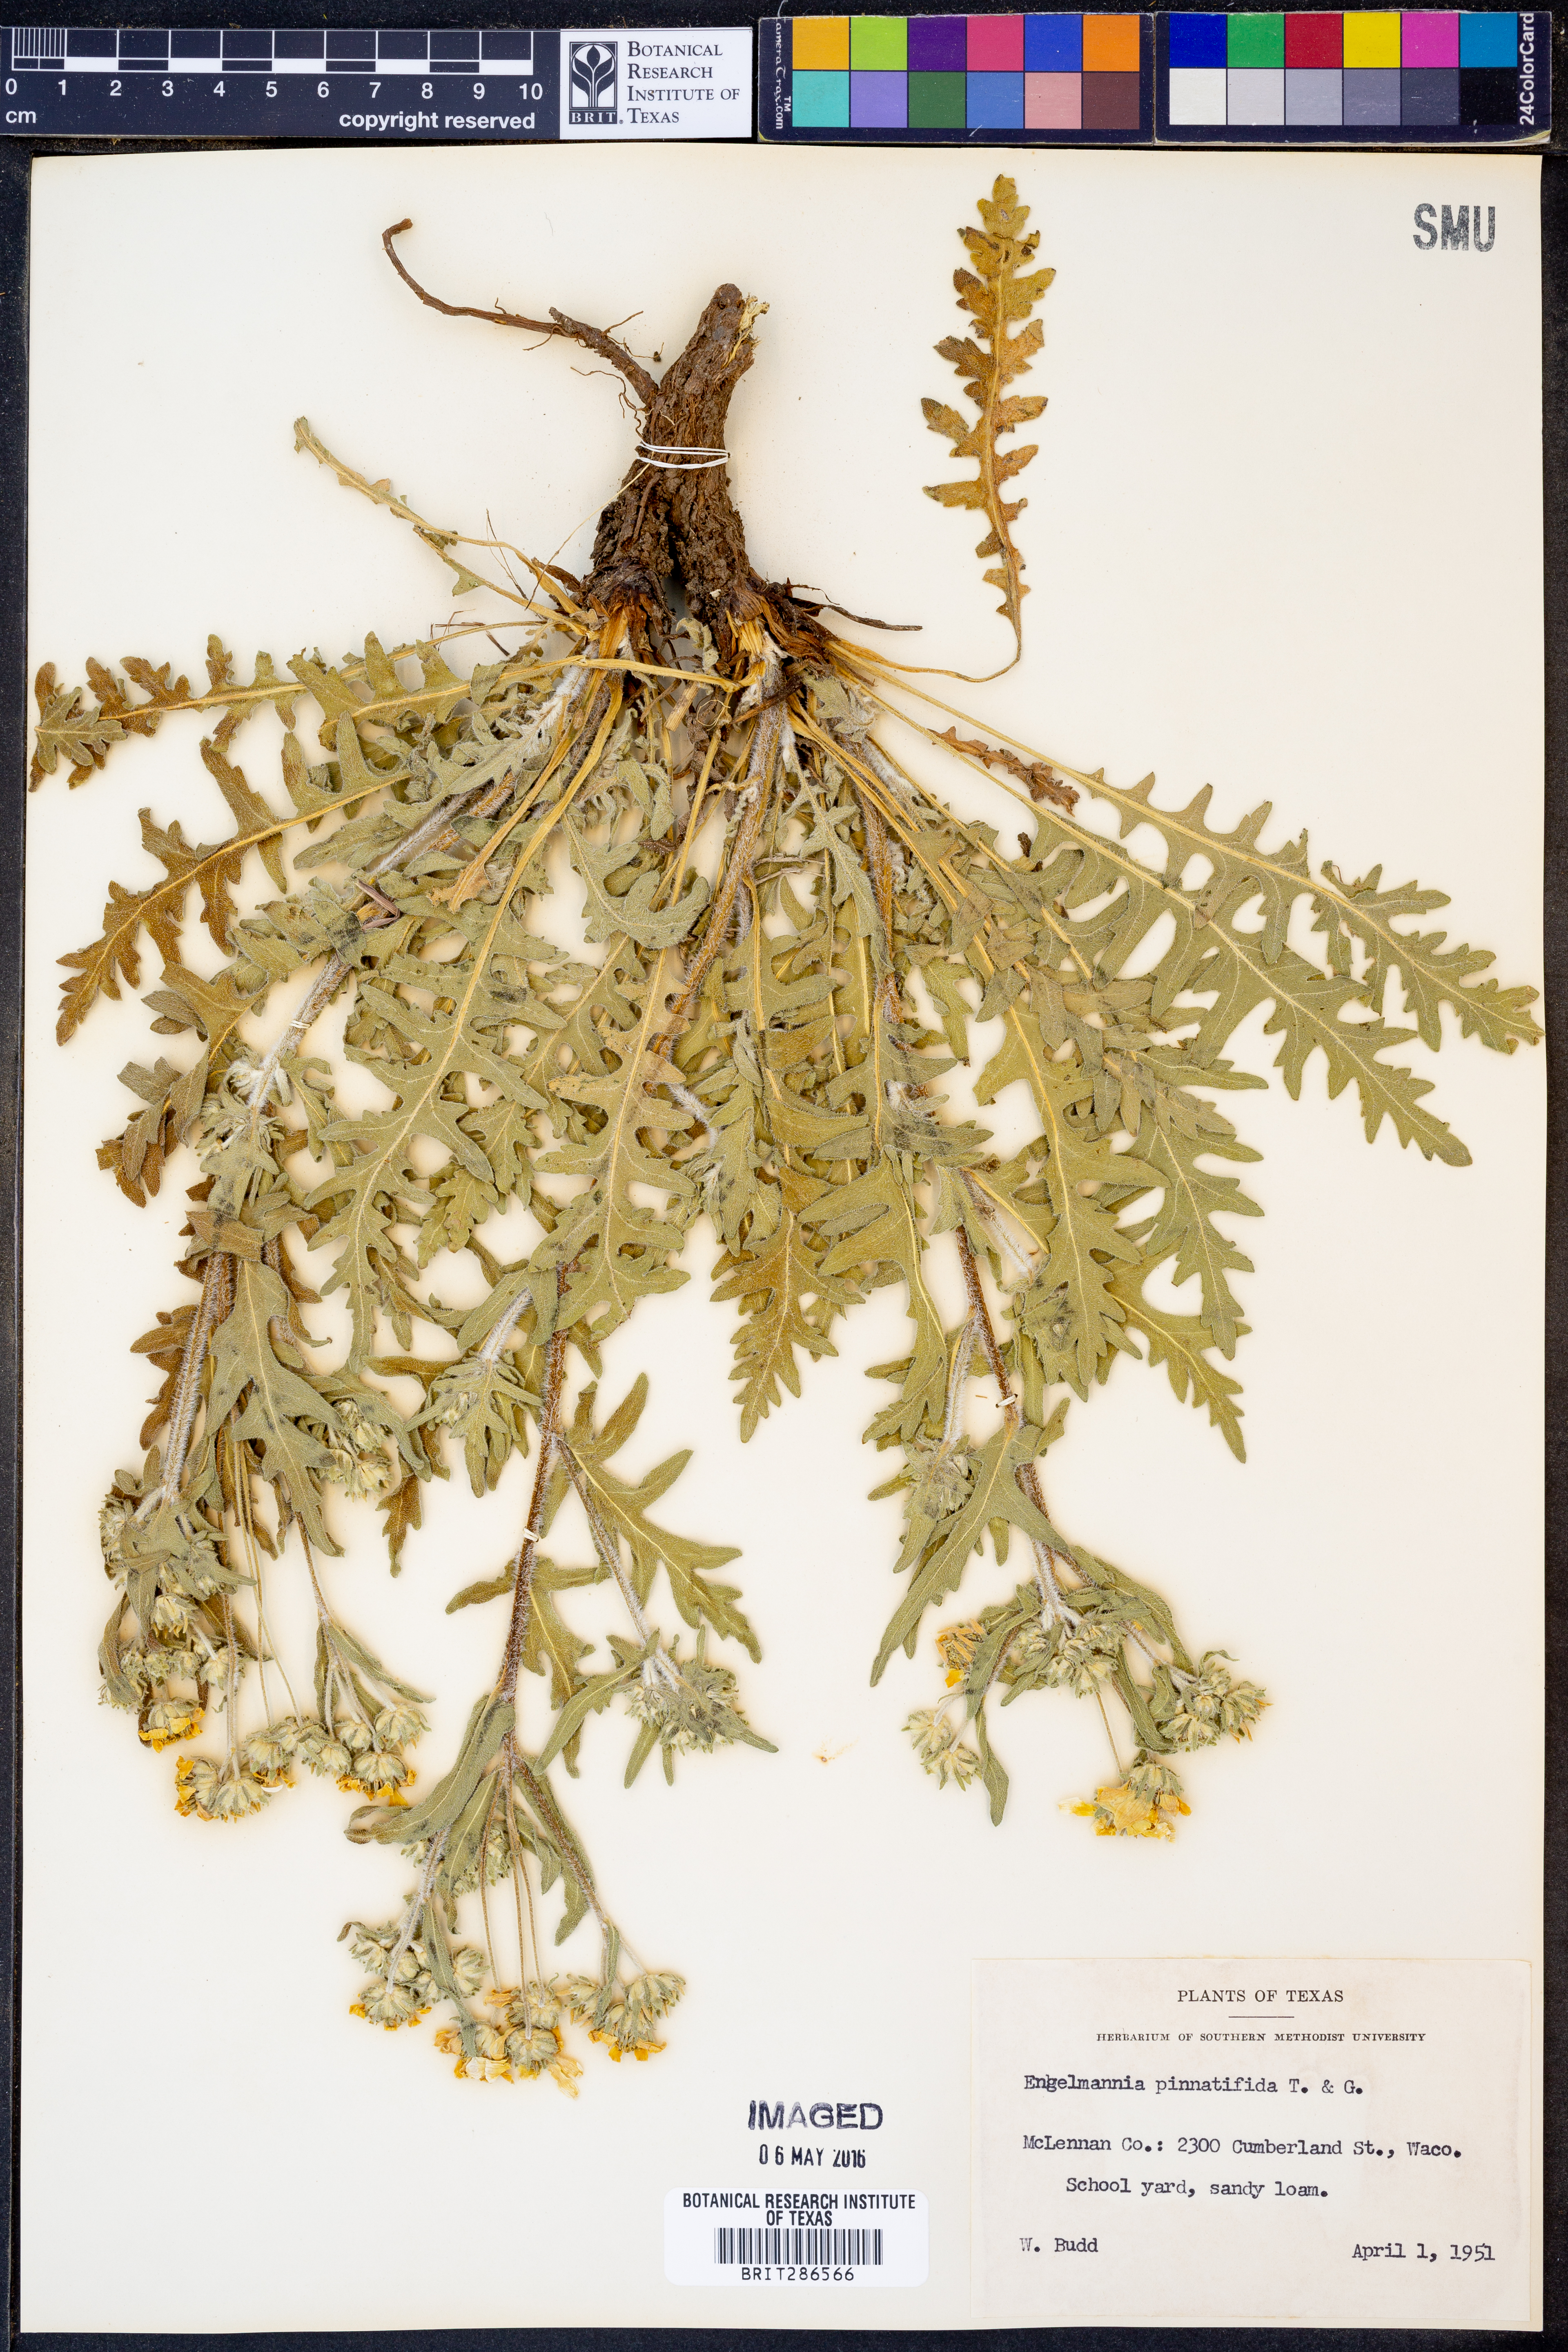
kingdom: Plantae
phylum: Tracheophyta
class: Magnoliopsida
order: Asterales
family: Asteraceae
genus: Engelmannia
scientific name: Engelmannia peristenia
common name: Engelmann's daisy
